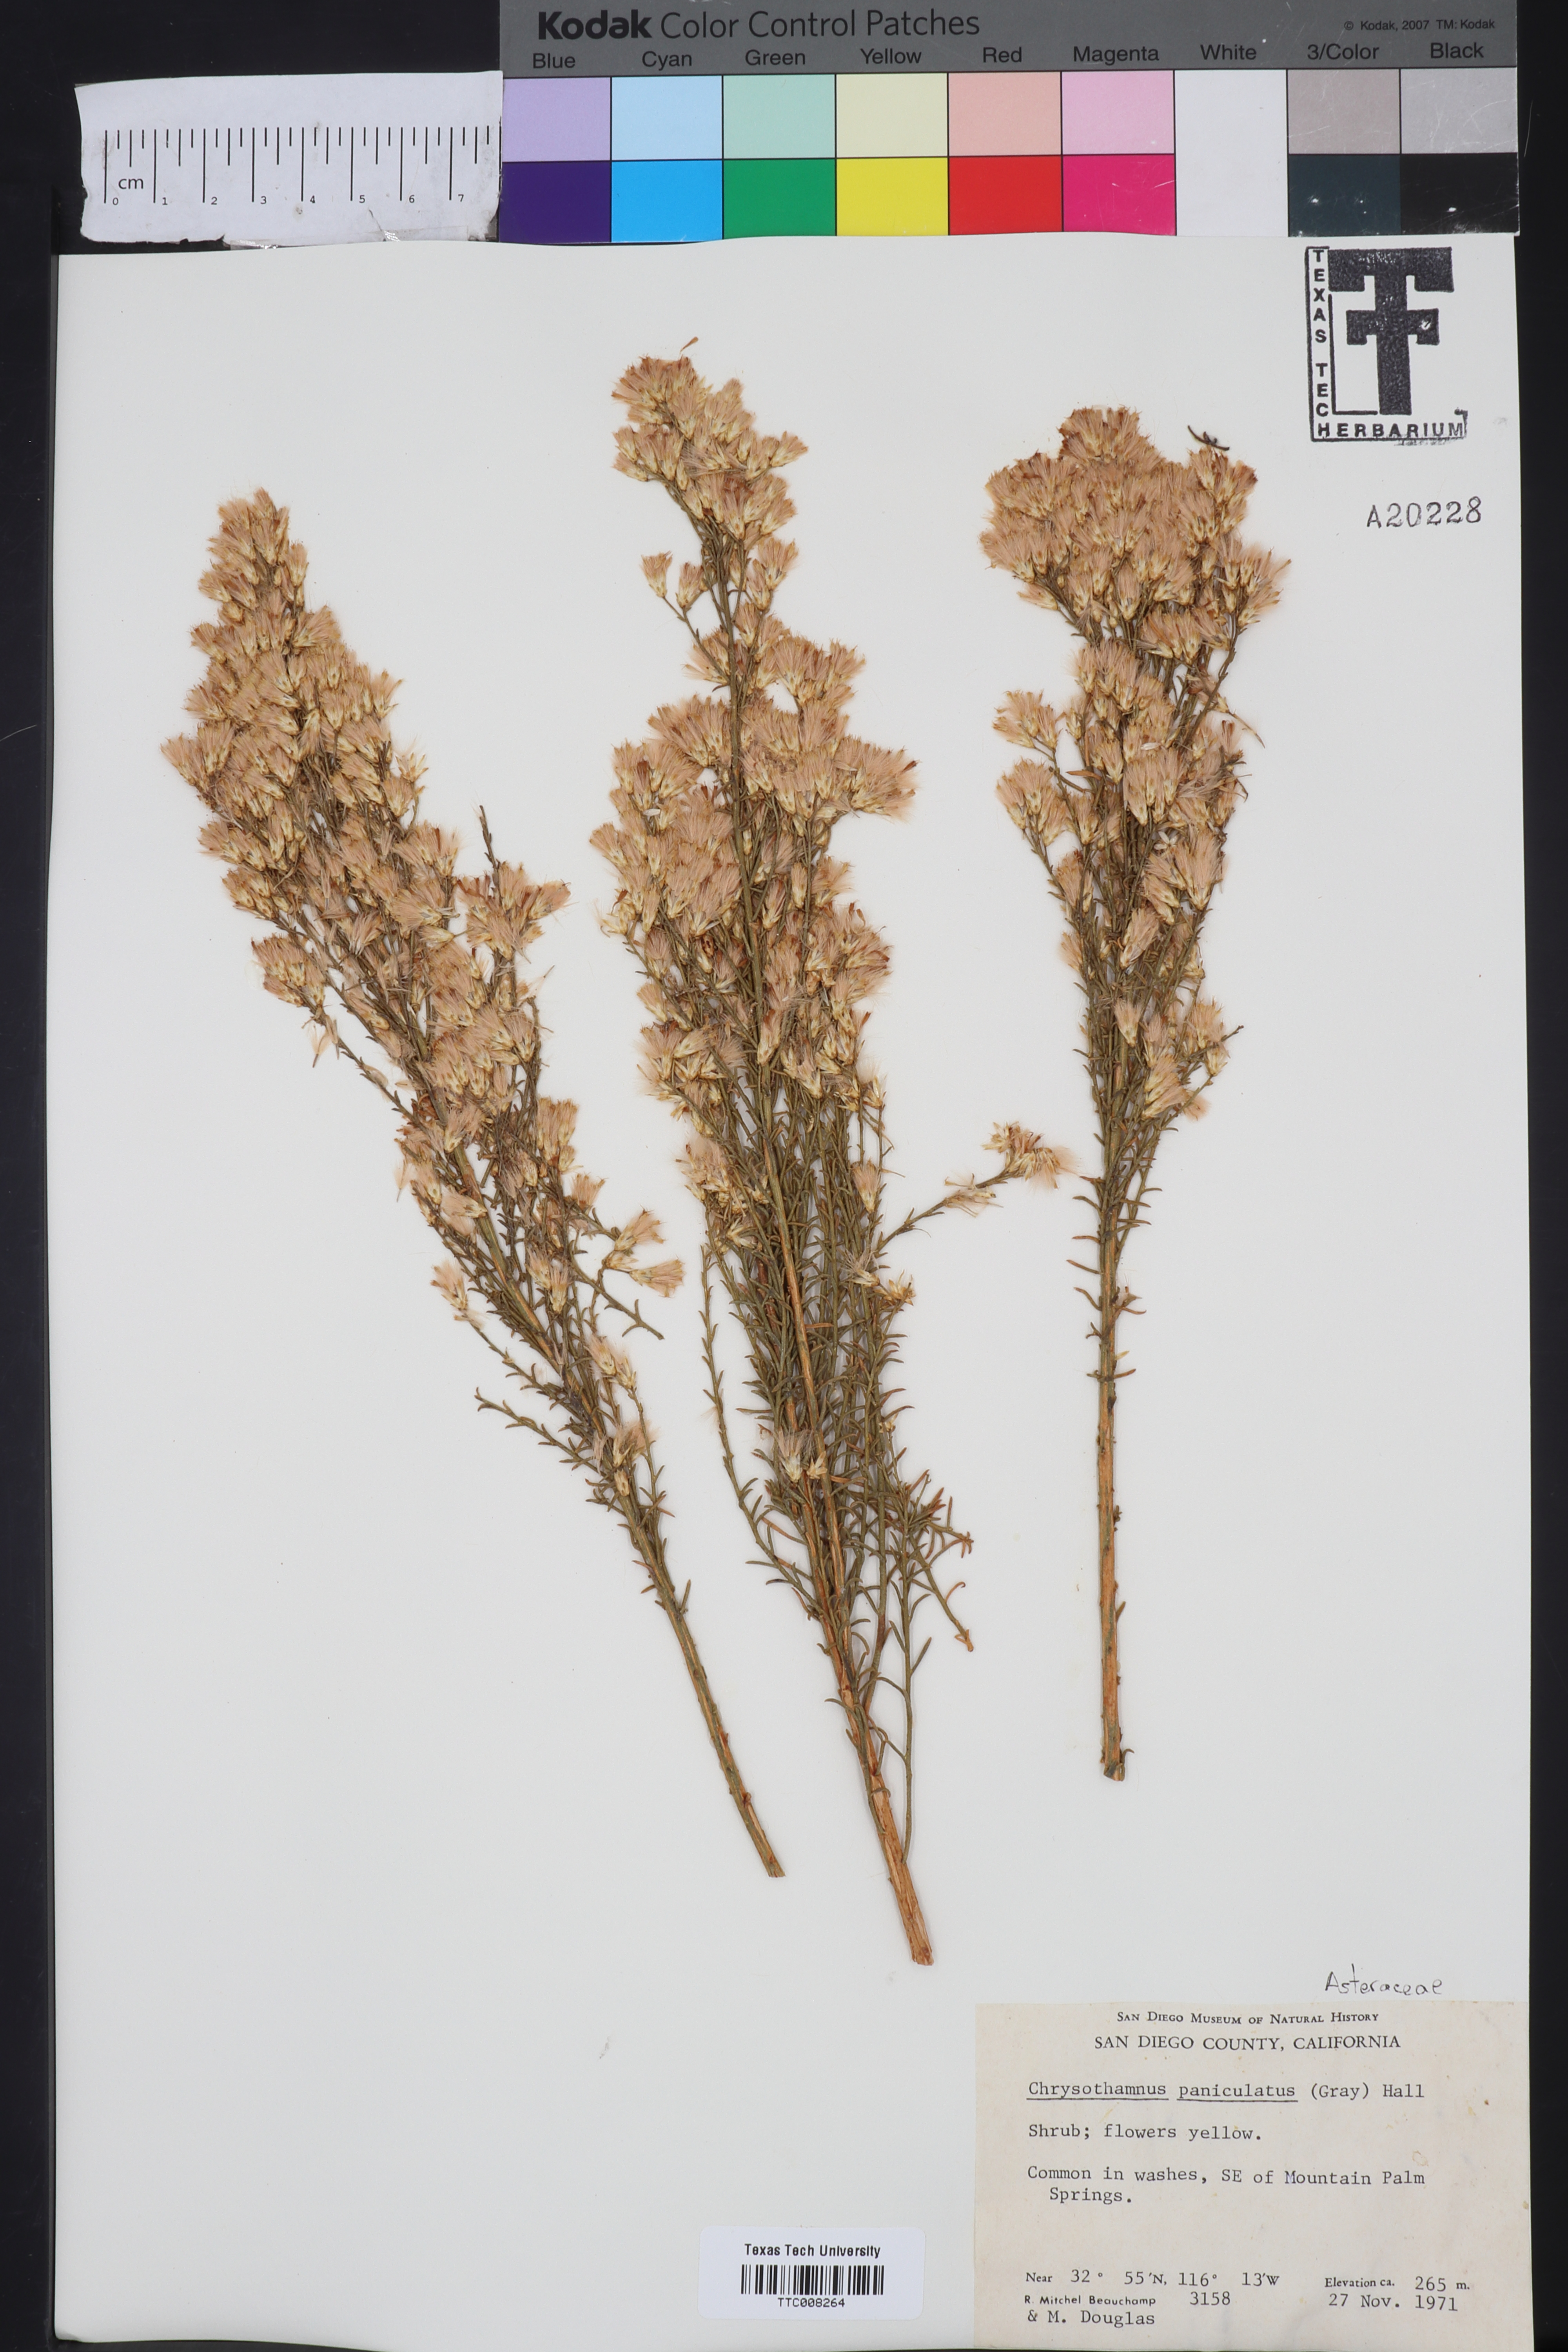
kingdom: Plantae
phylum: Tracheophyta
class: Magnoliopsida
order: Asterales
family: Asteraceae
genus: Ericameria
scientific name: Ericameria paniculata
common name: Punctate rabbitbrush
